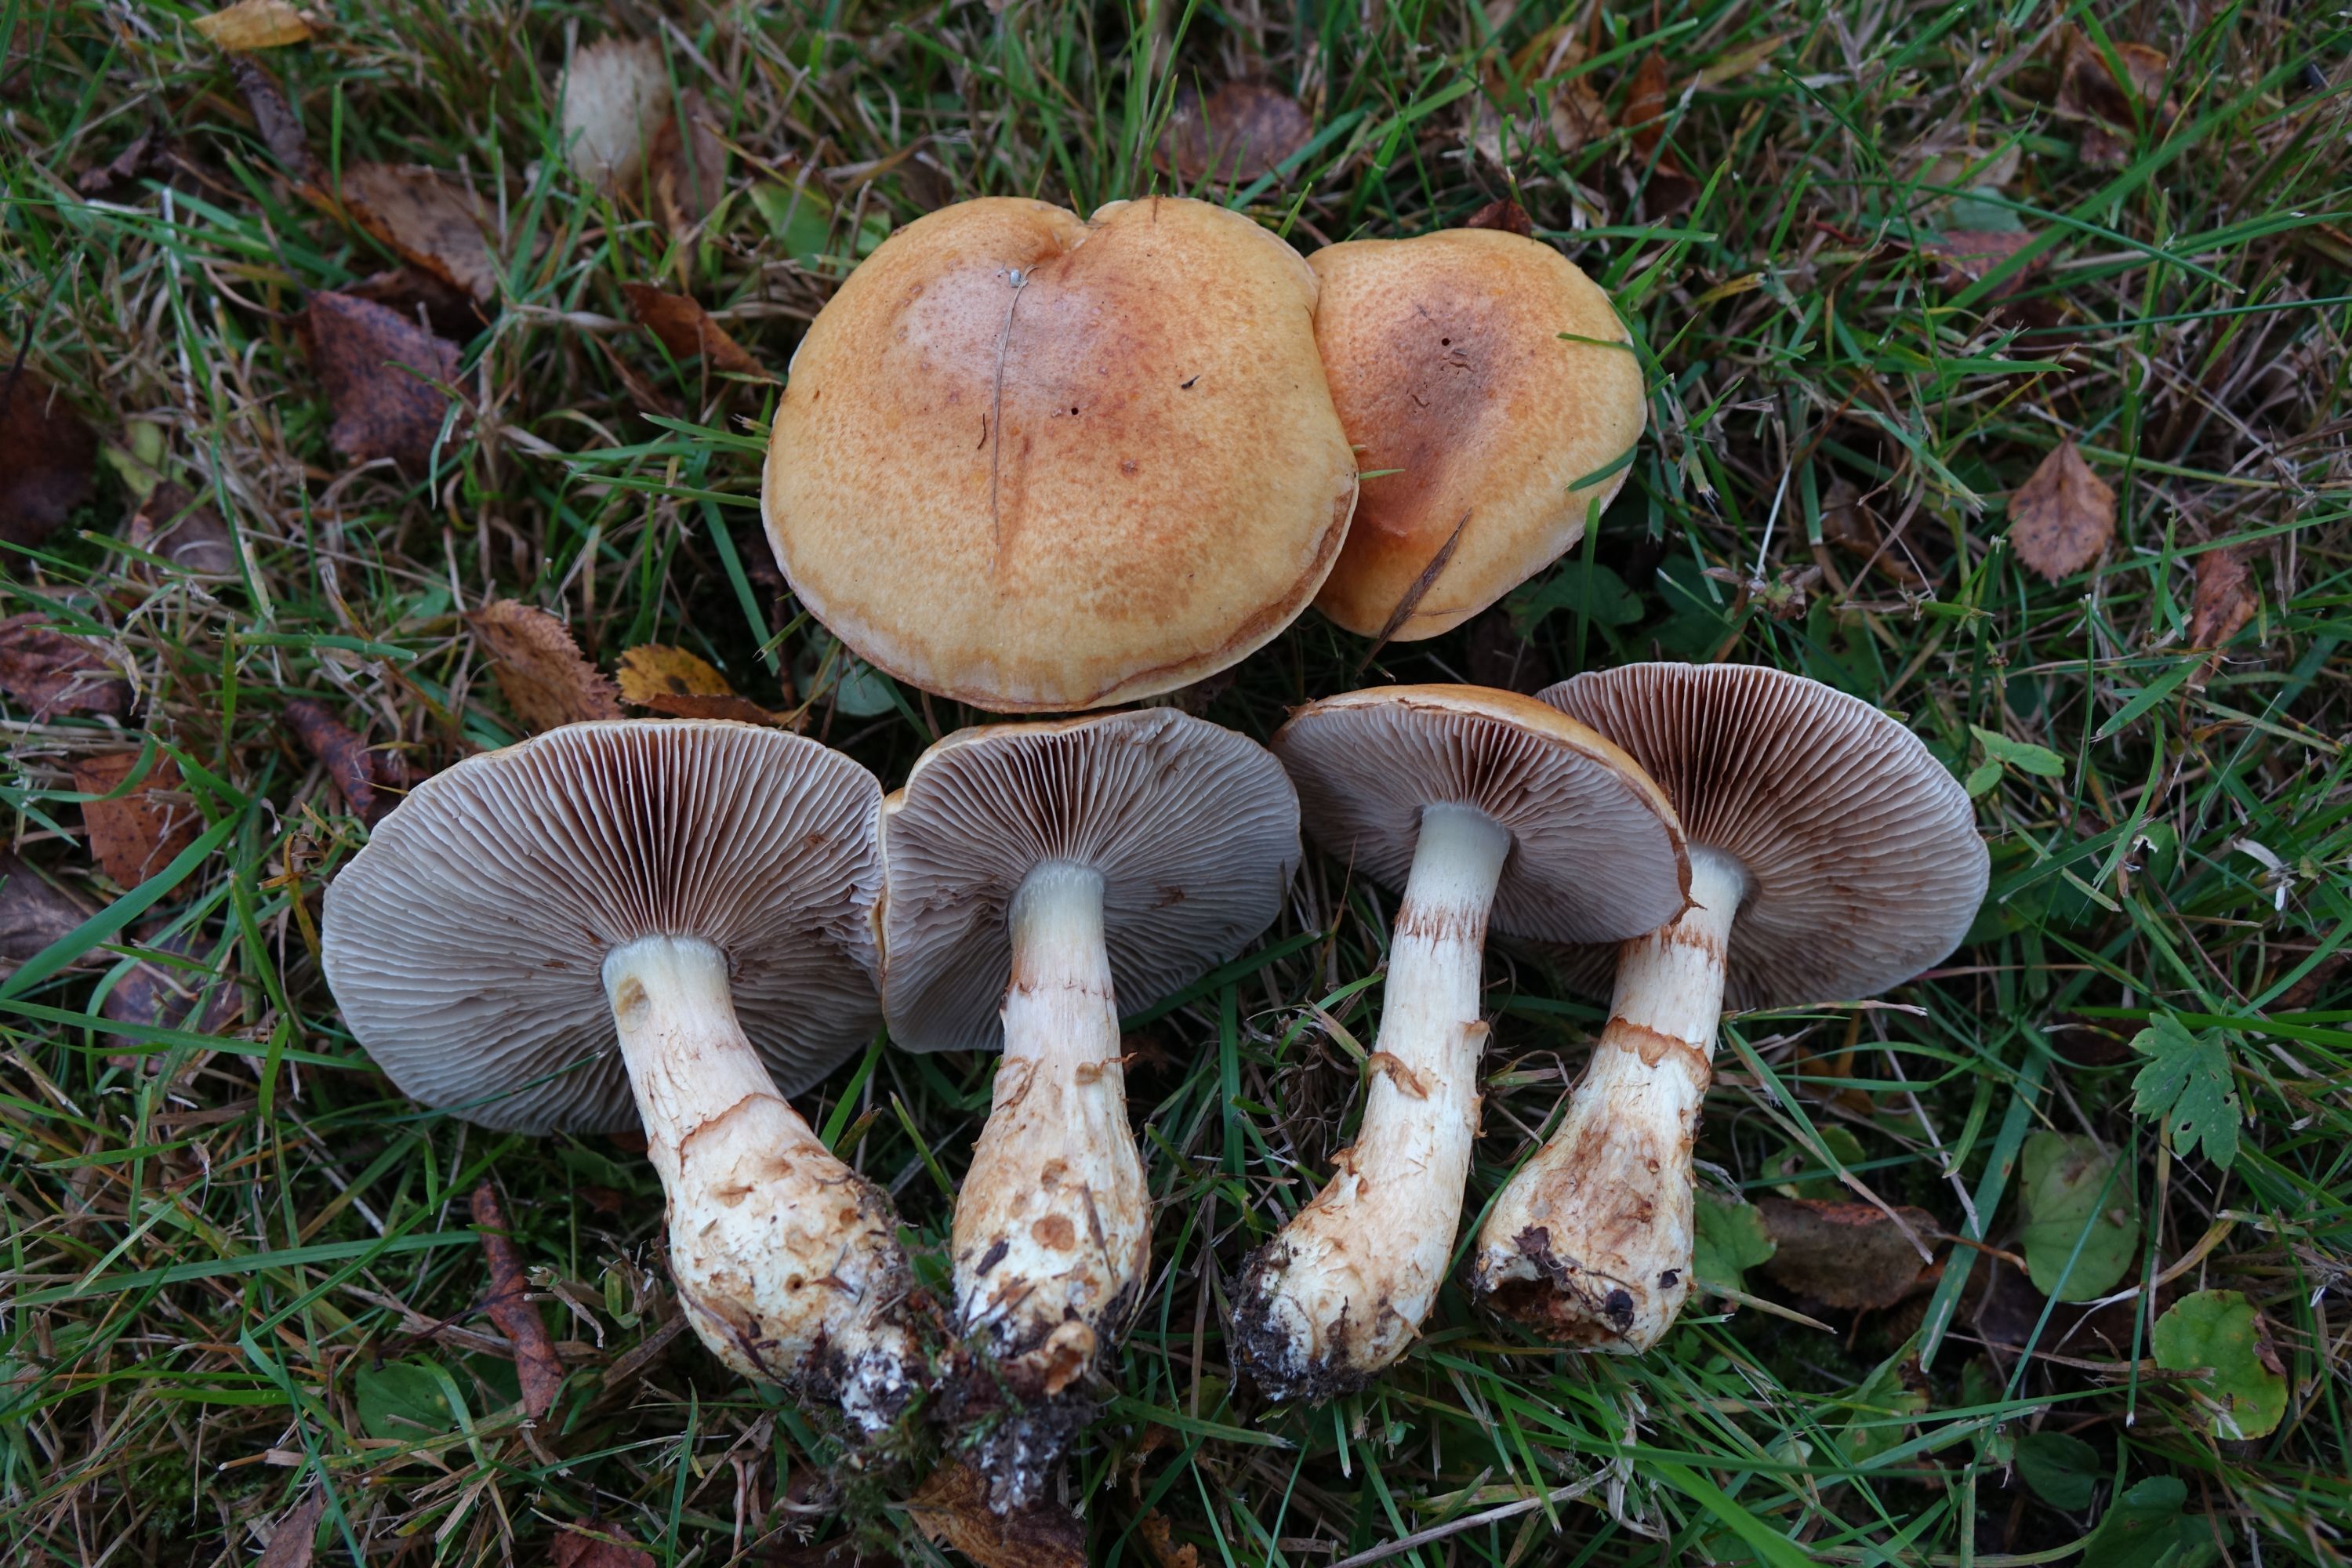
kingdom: Fungi
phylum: Basidiomycota
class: Agaricomycetes
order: Agaricales
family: Cortinariaceae
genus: Phlegmacium
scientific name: Phlegmacium triumphans
